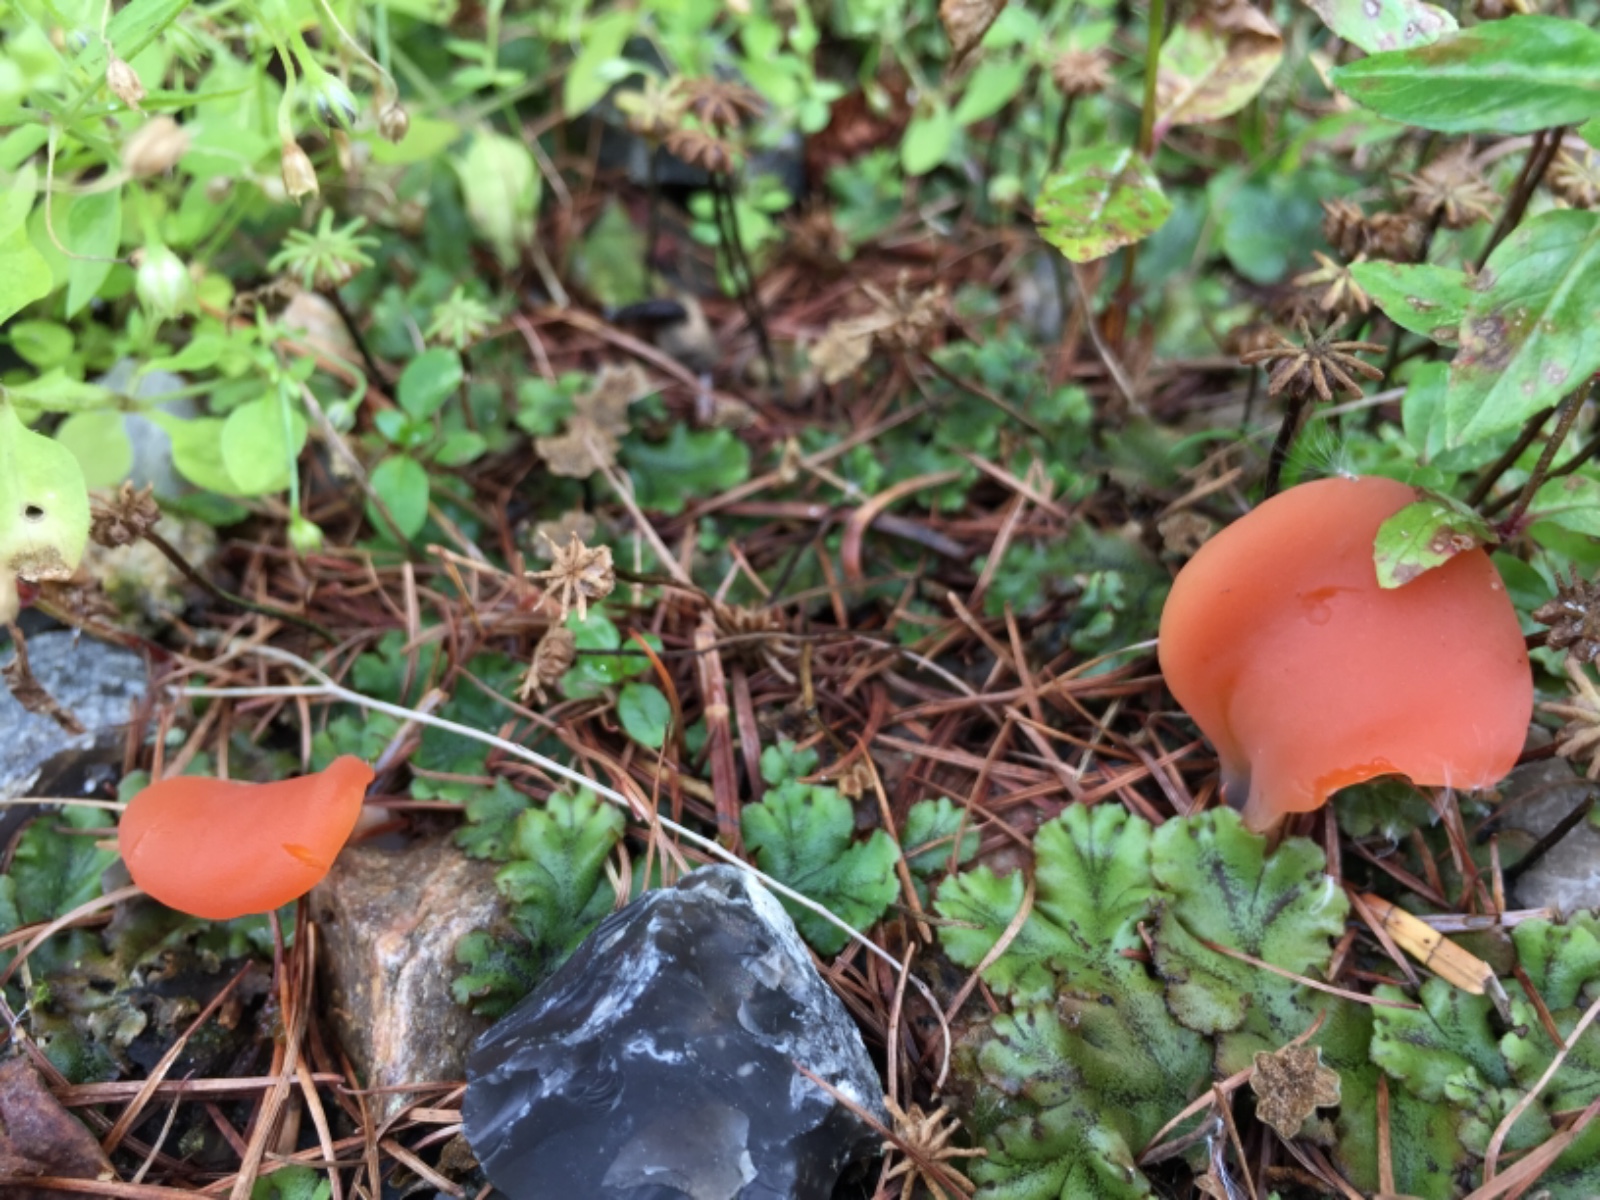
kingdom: Fungi
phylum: Basidiomycota
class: Agaricomycetes
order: Auriculariales
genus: Guepinia
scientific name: Guepinia helvelloides
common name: bævretunge
